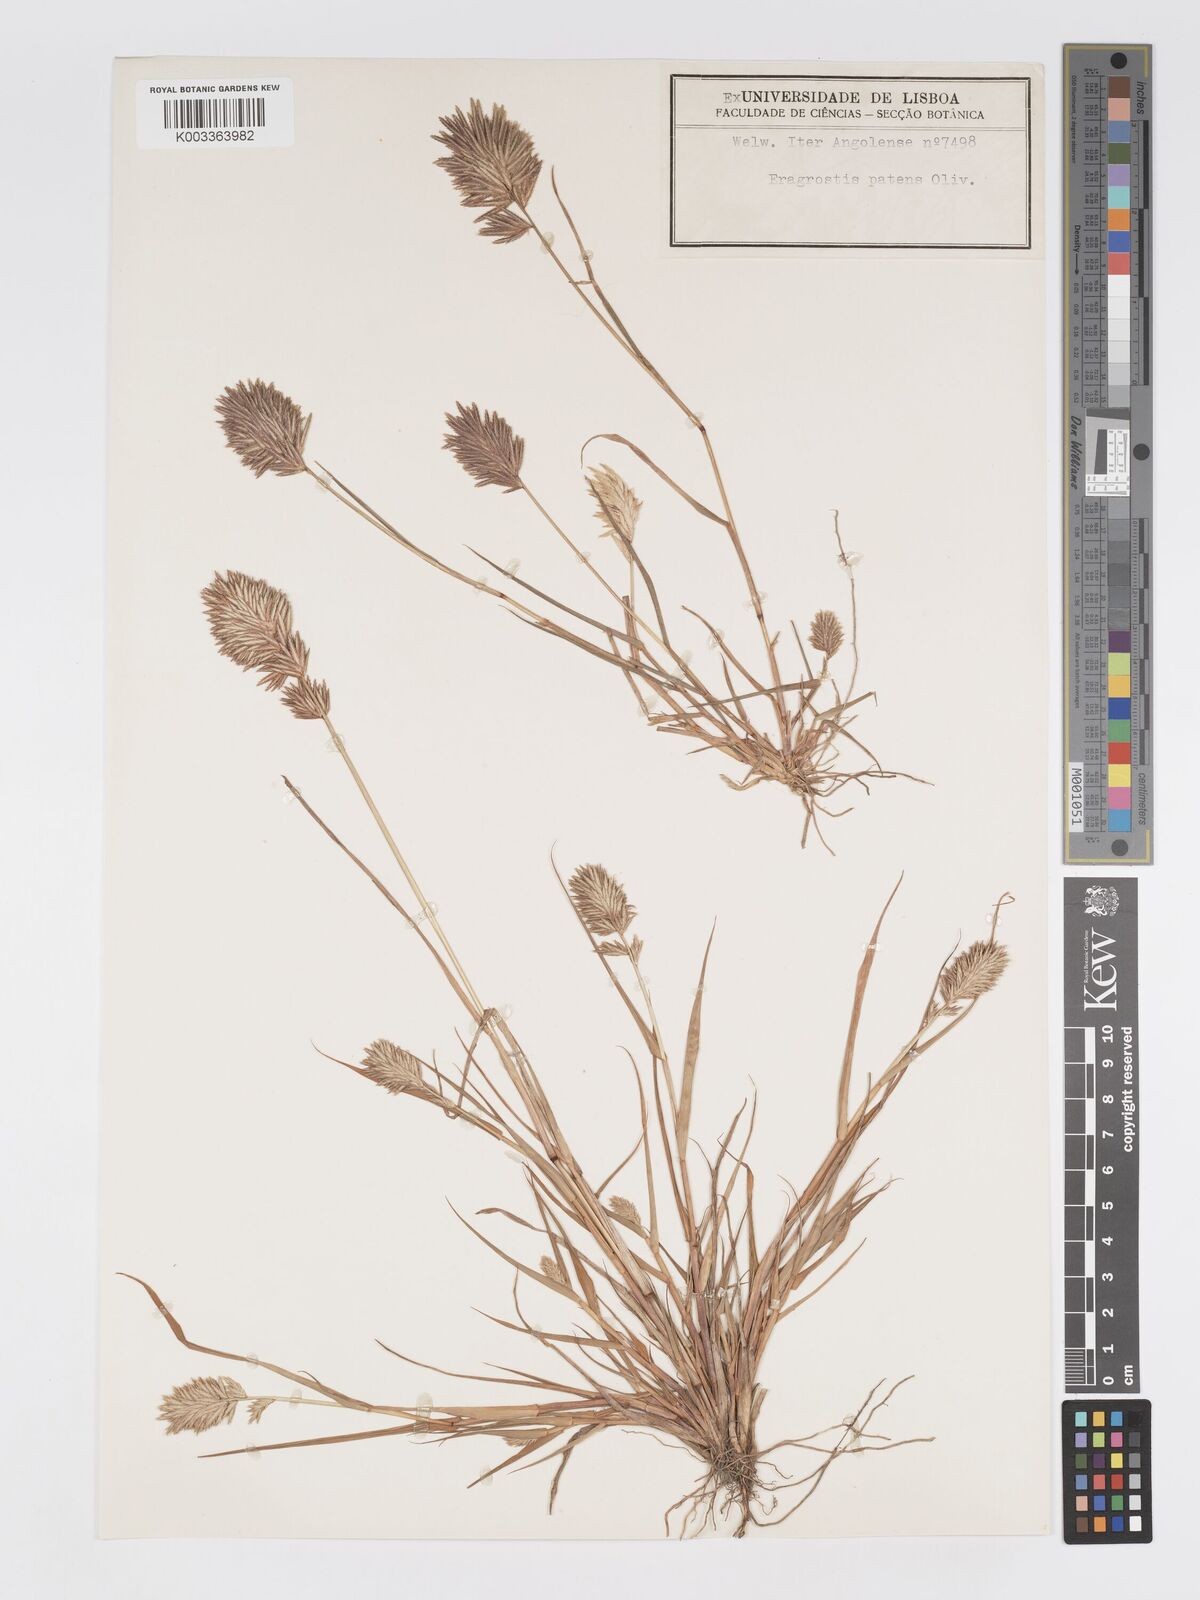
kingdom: Plantae
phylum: Tracheophyta
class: Liliopsida
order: Poales
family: Poaceae
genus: Eragrostis
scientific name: Eragrostis patens
